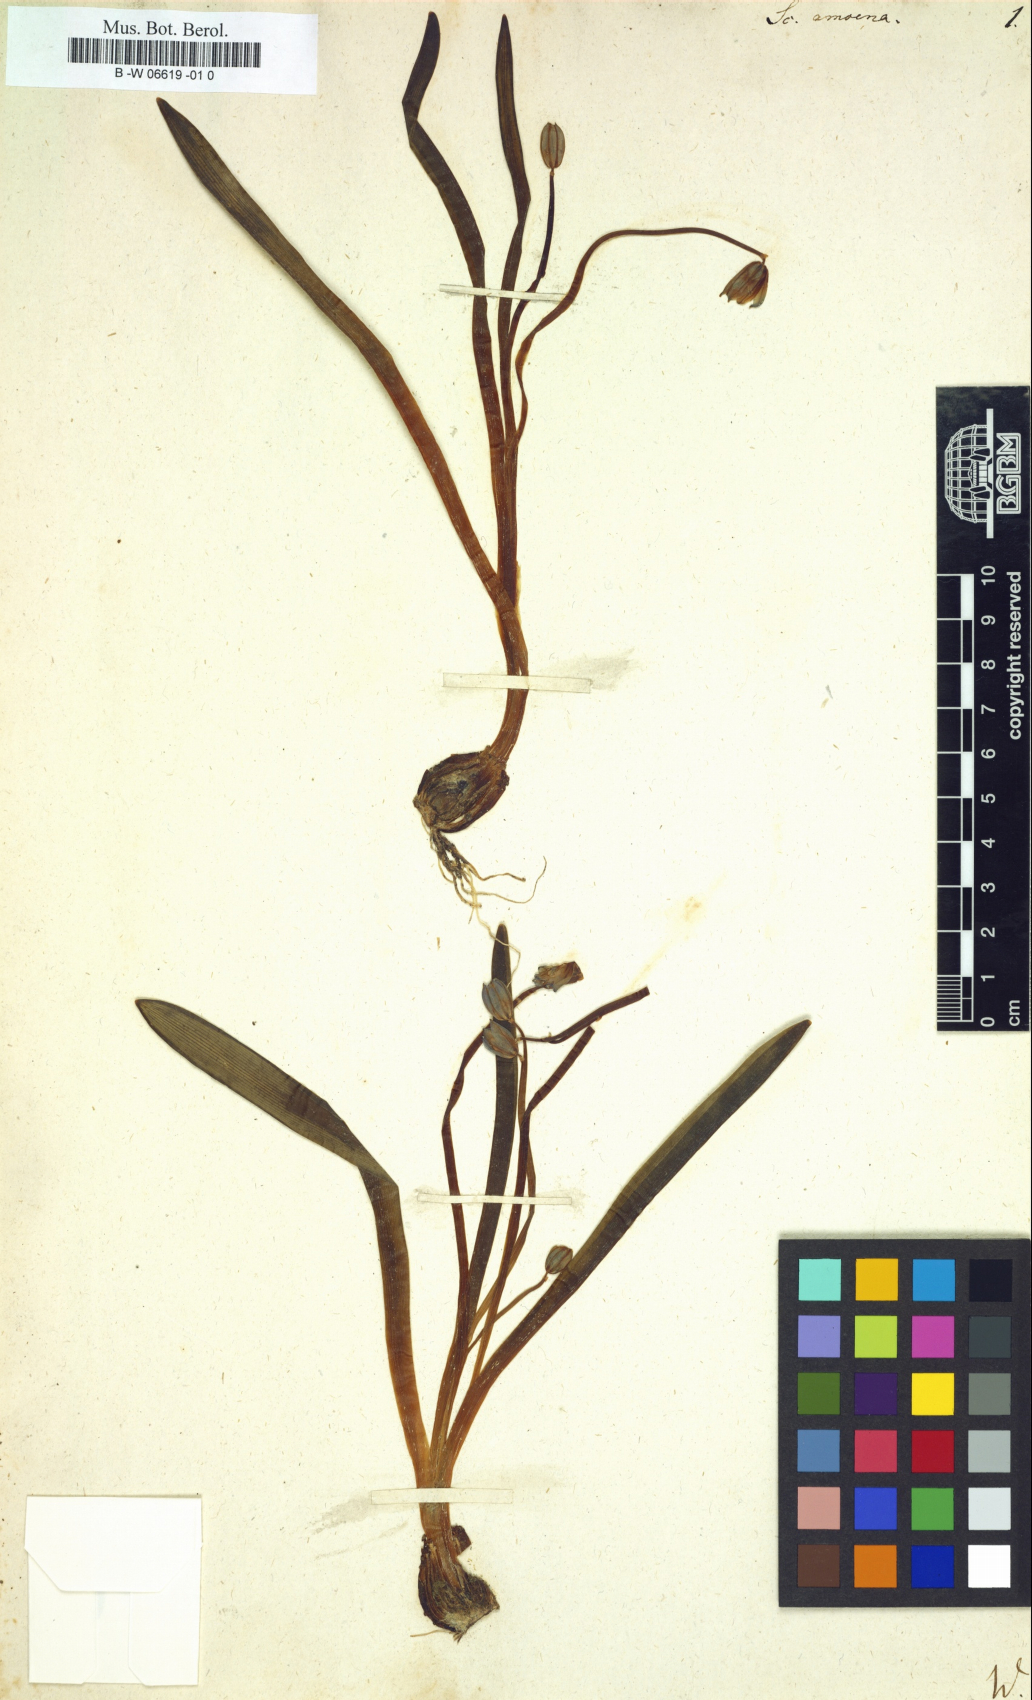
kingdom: Plantae
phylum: Tracheophyta
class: Liliopsida
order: Asparagales
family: Asparagaceae
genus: Scilla
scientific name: Scilla amoena
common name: Star-hyacinth
